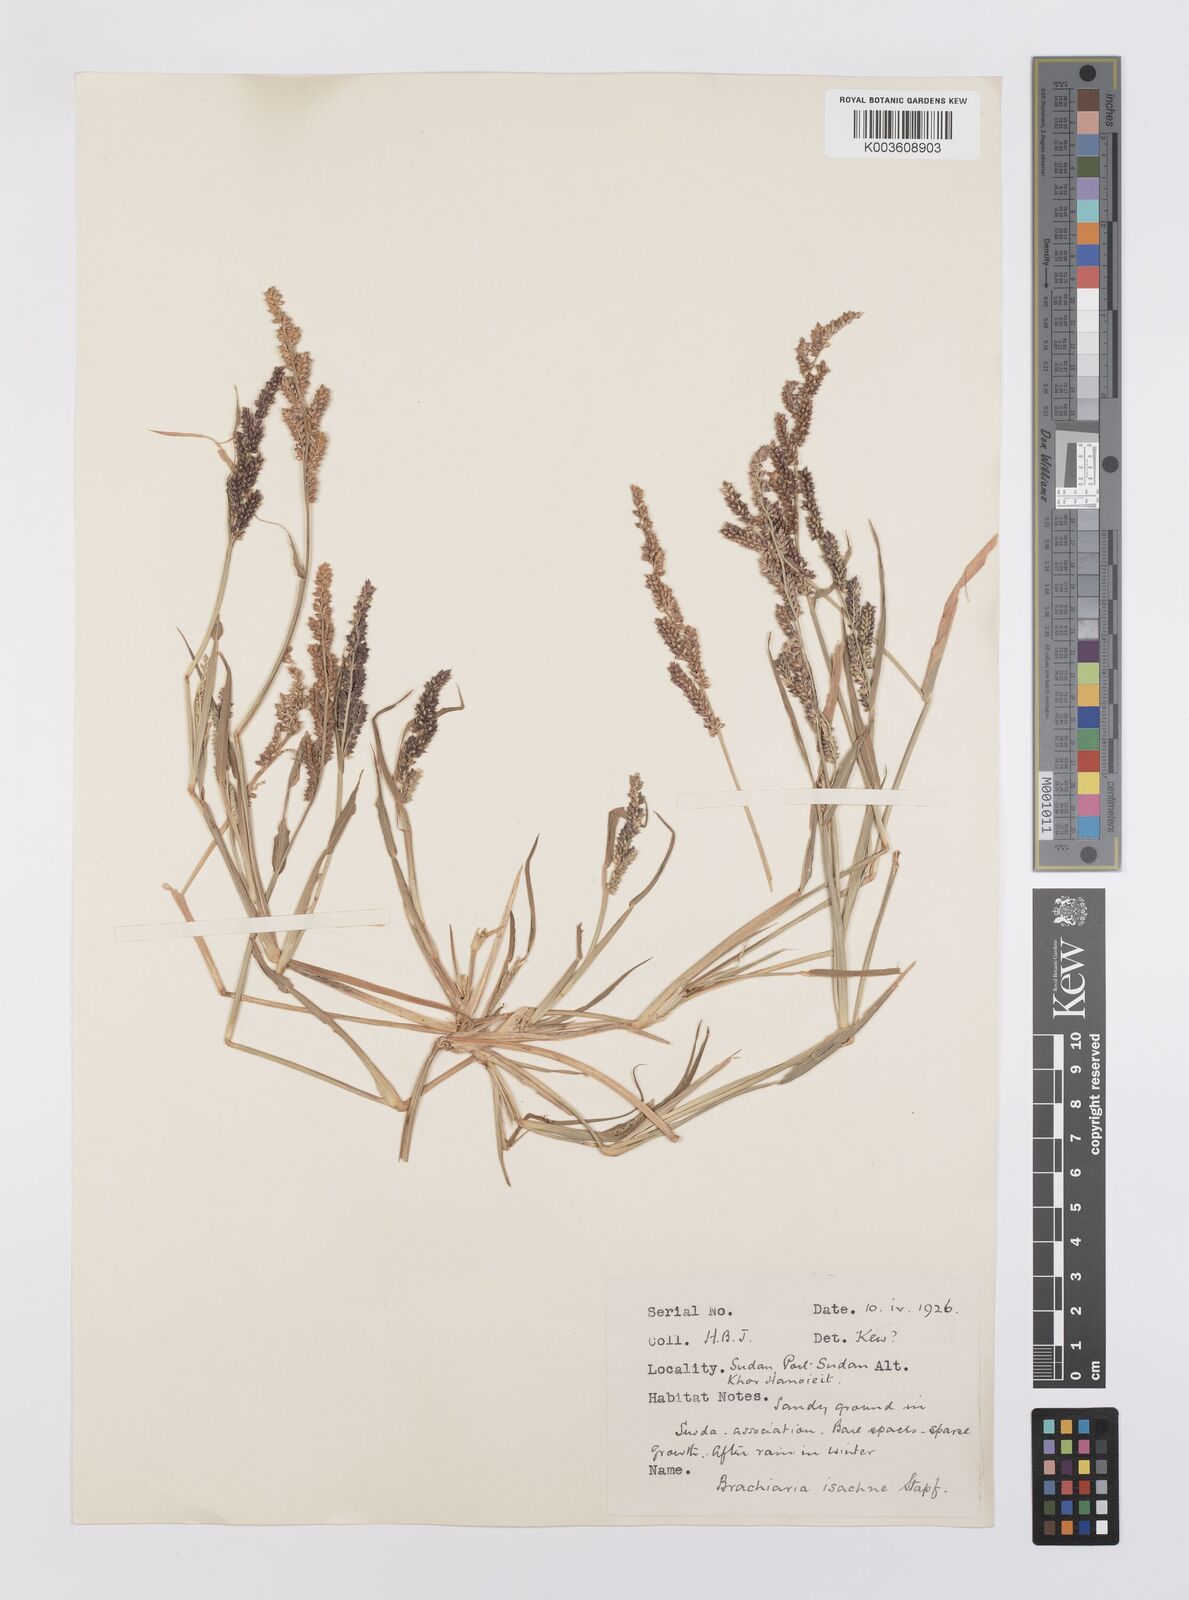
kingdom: Plantae
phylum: Tracheophyta
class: Liliopsida
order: Poales
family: Poaceae
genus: Echinochloa
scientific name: Echinochloa colonum
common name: Jungle rice
